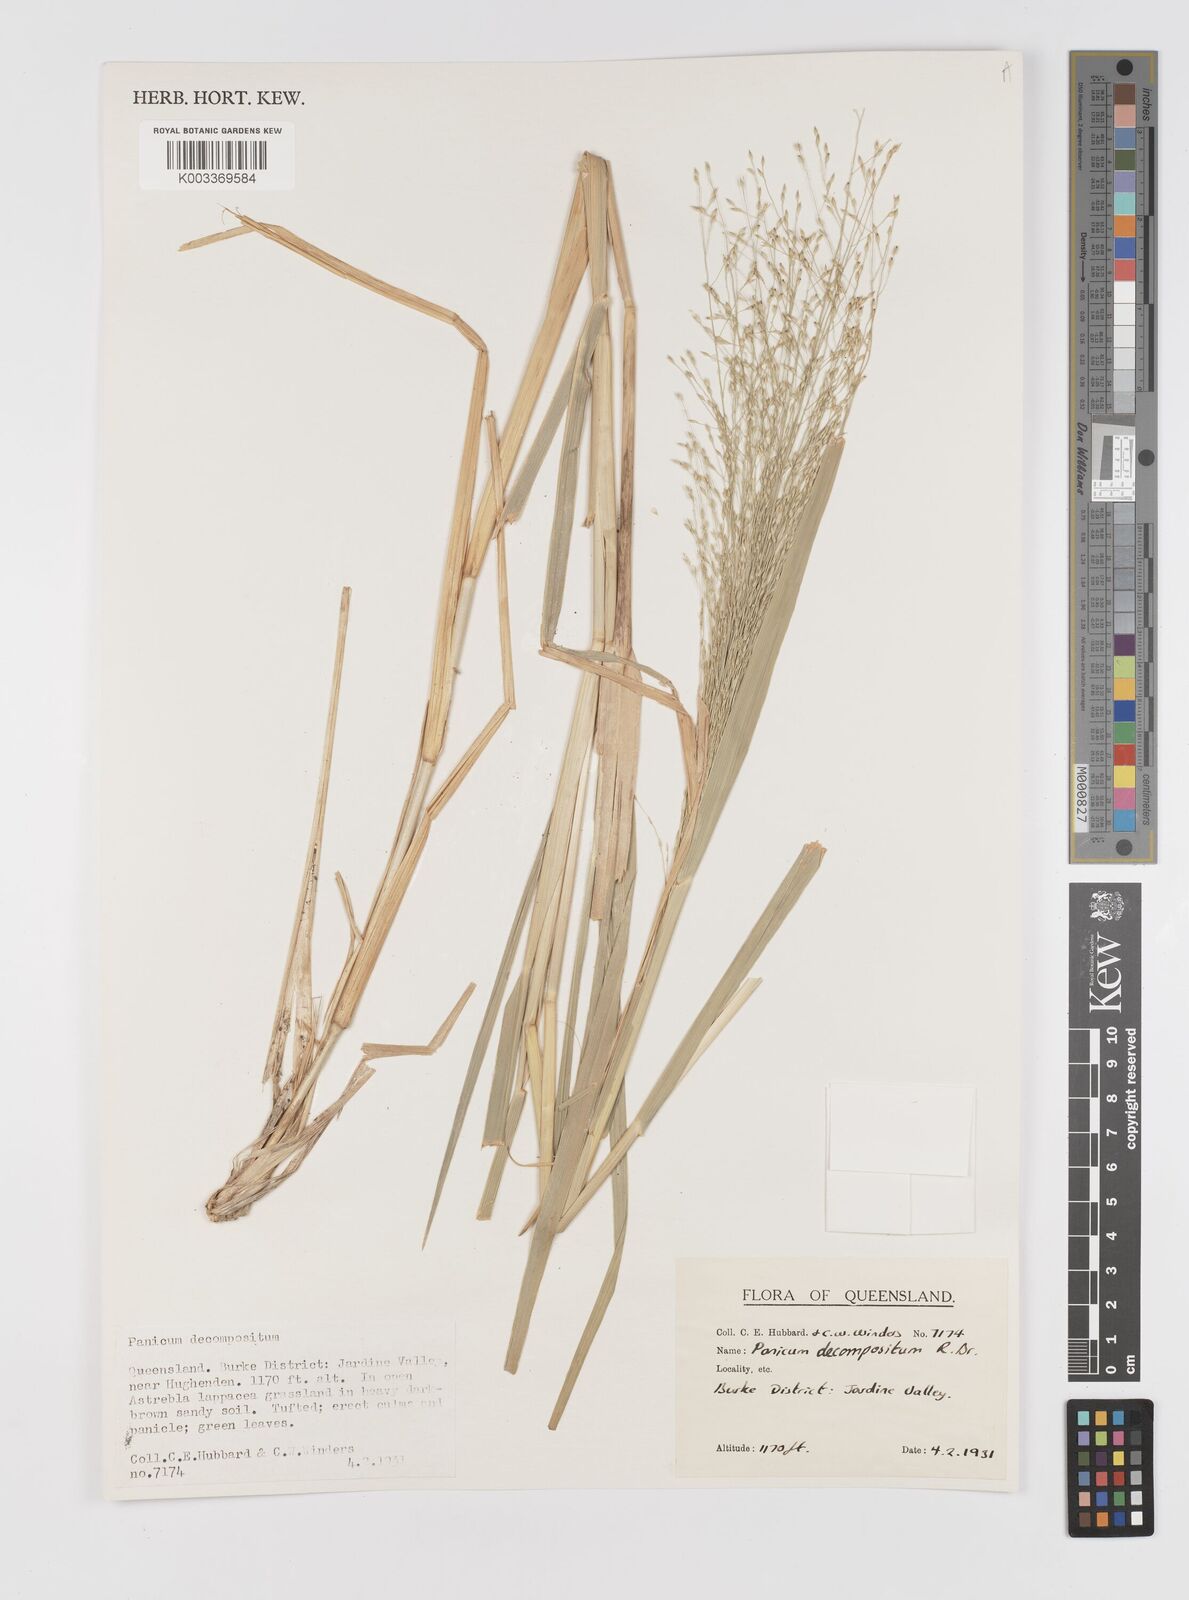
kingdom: Plantae
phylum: Tracheophyta
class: Liliopsida
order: Poales
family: Poaceae
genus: Panicum
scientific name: Panicum decompositum
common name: Australian millet
